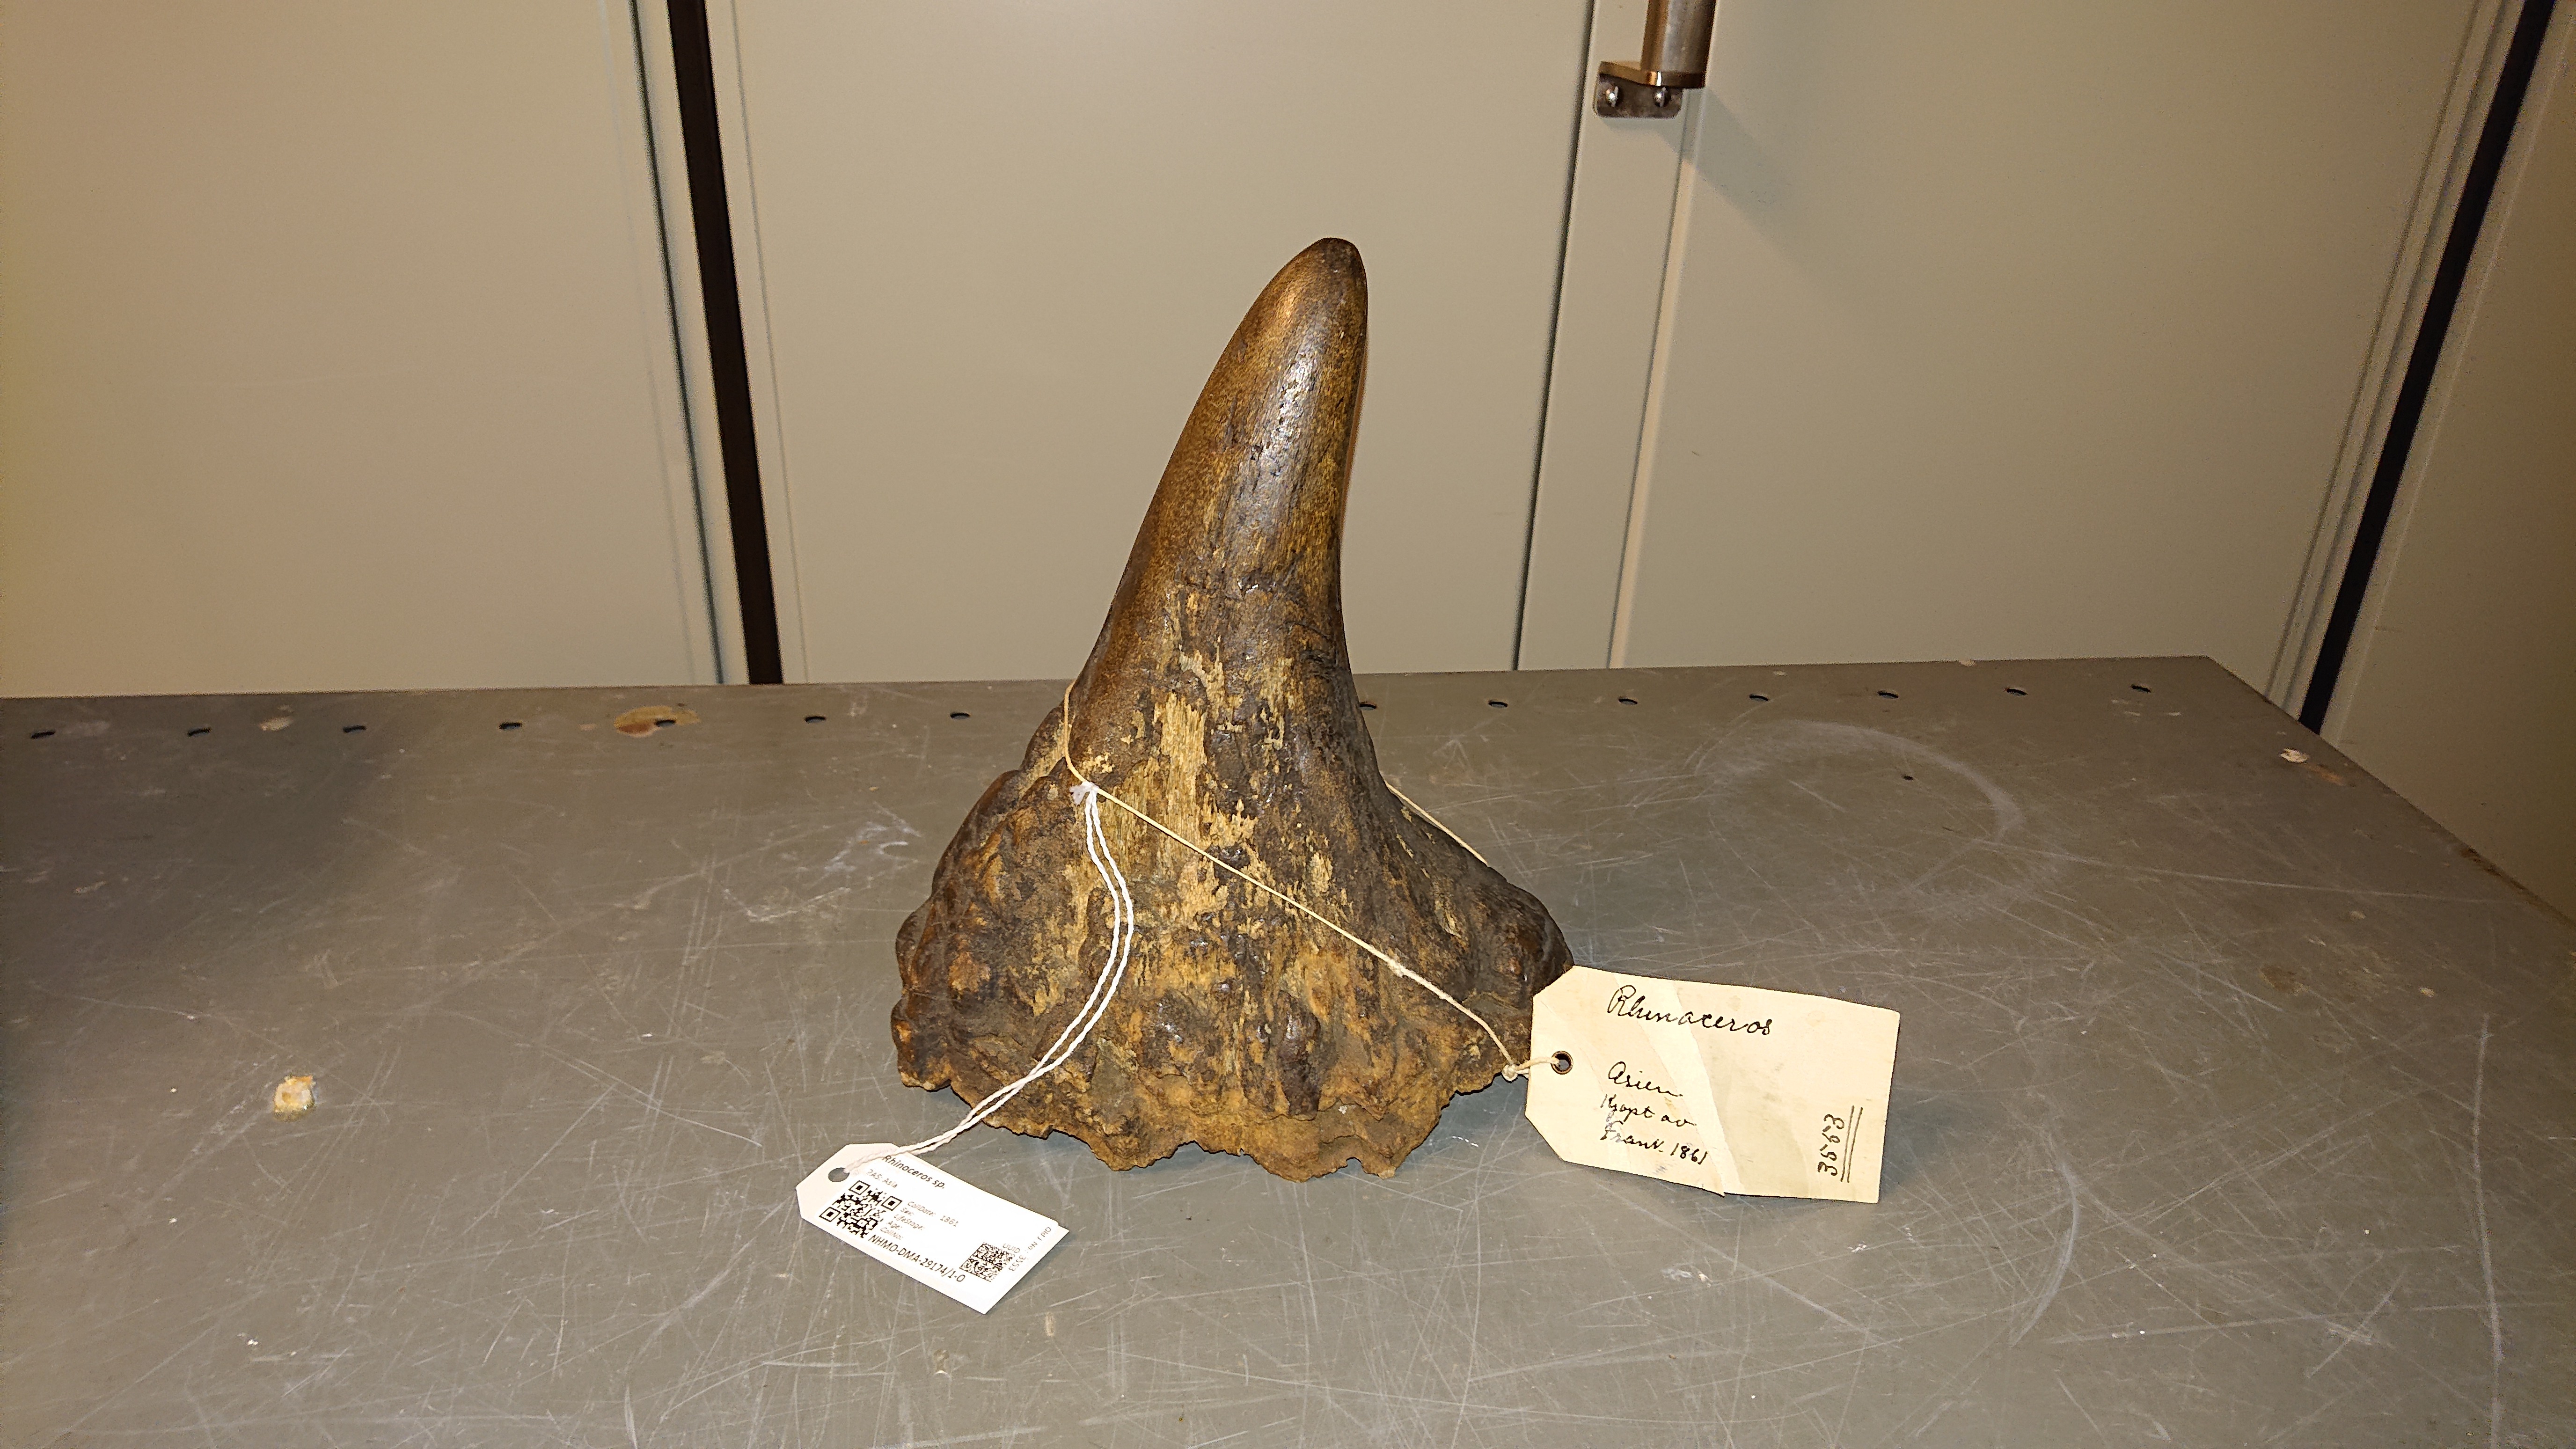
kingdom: Animalia
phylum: Chordata
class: Mammalia
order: Perissodactyla
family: Rhinocerotidae
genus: Rhinoceros
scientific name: Rhinoceros
